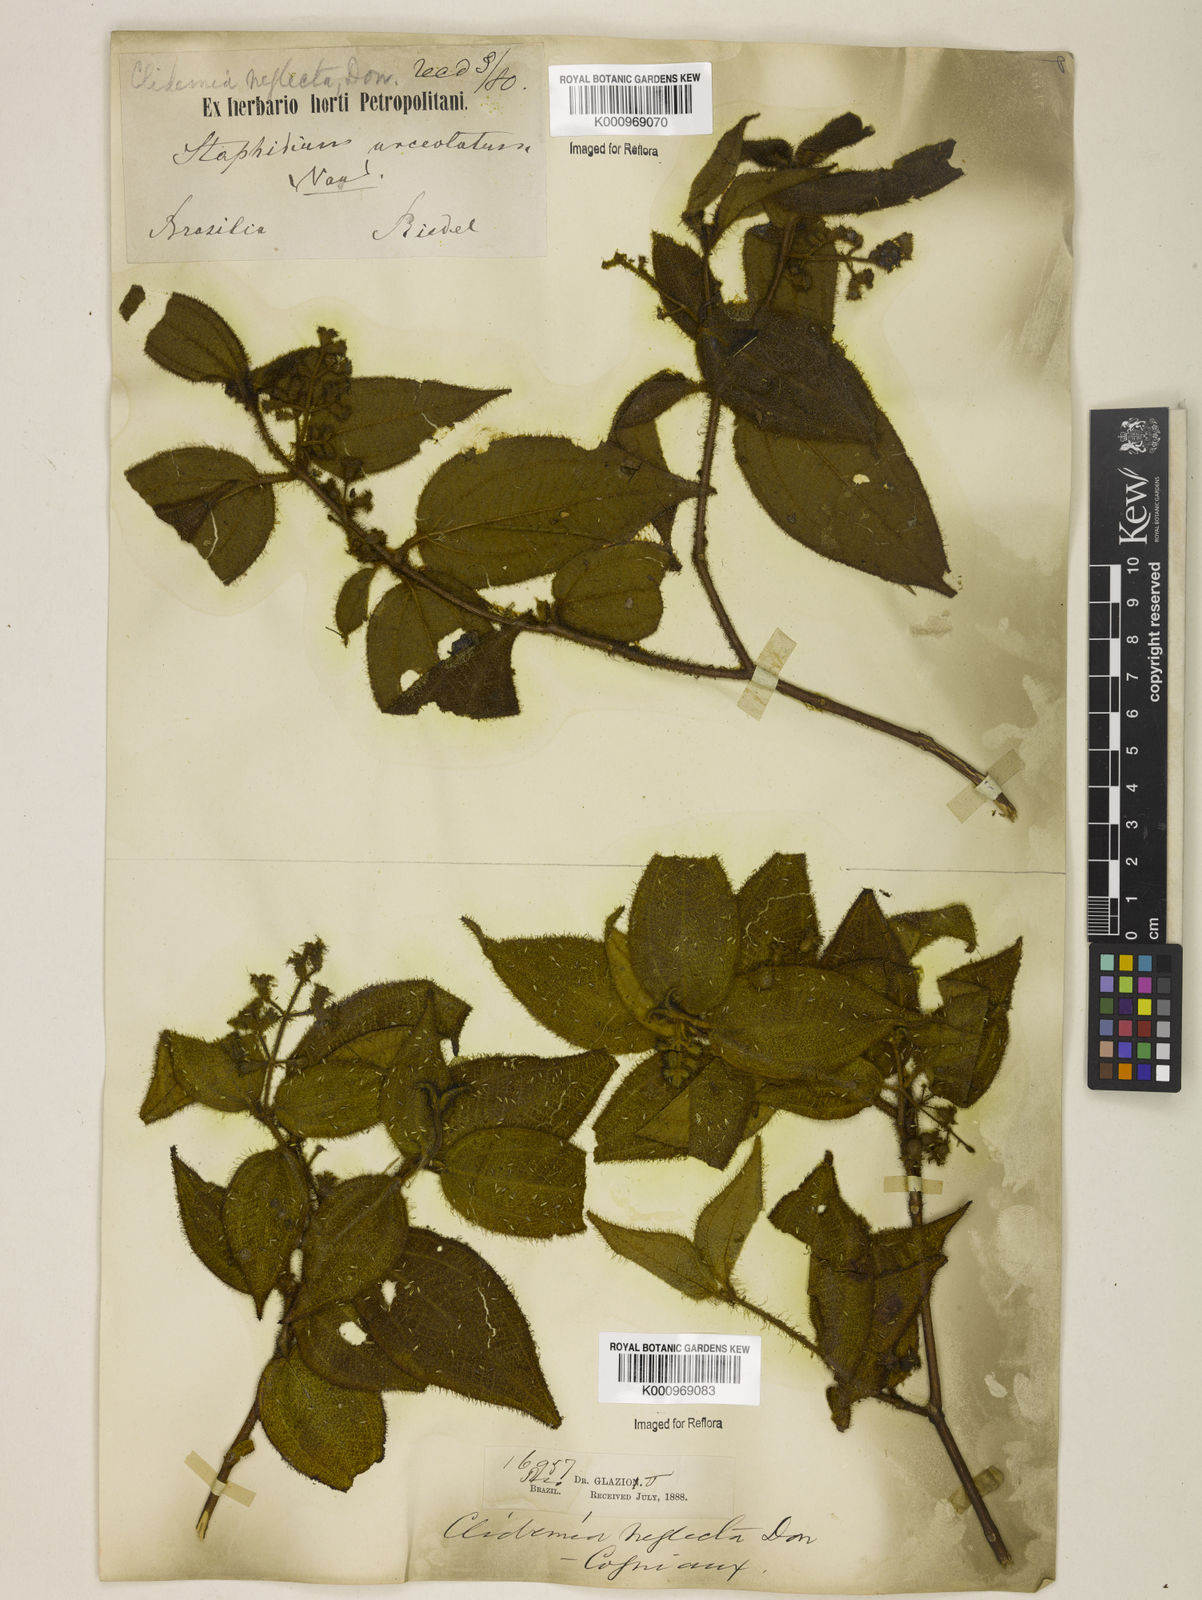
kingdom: Plantae
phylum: Tracheophyta
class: Magnoliopsida
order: Myrtales
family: Melastomataceae
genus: Miconia
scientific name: Miconia dependens
